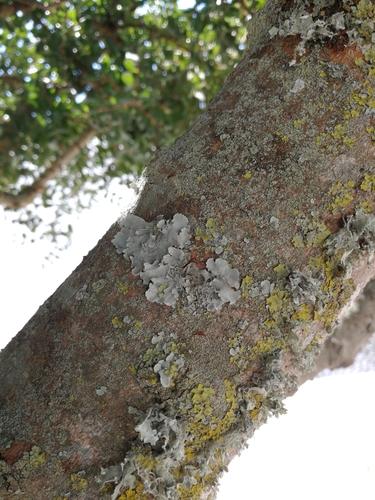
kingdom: Fungi
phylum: Ascomycota
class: Lecanoromycetes
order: Lecanorales
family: Parmeliaceae
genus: Parmotrema
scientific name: Parmotrema reticulatum
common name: Black sheet lichen
